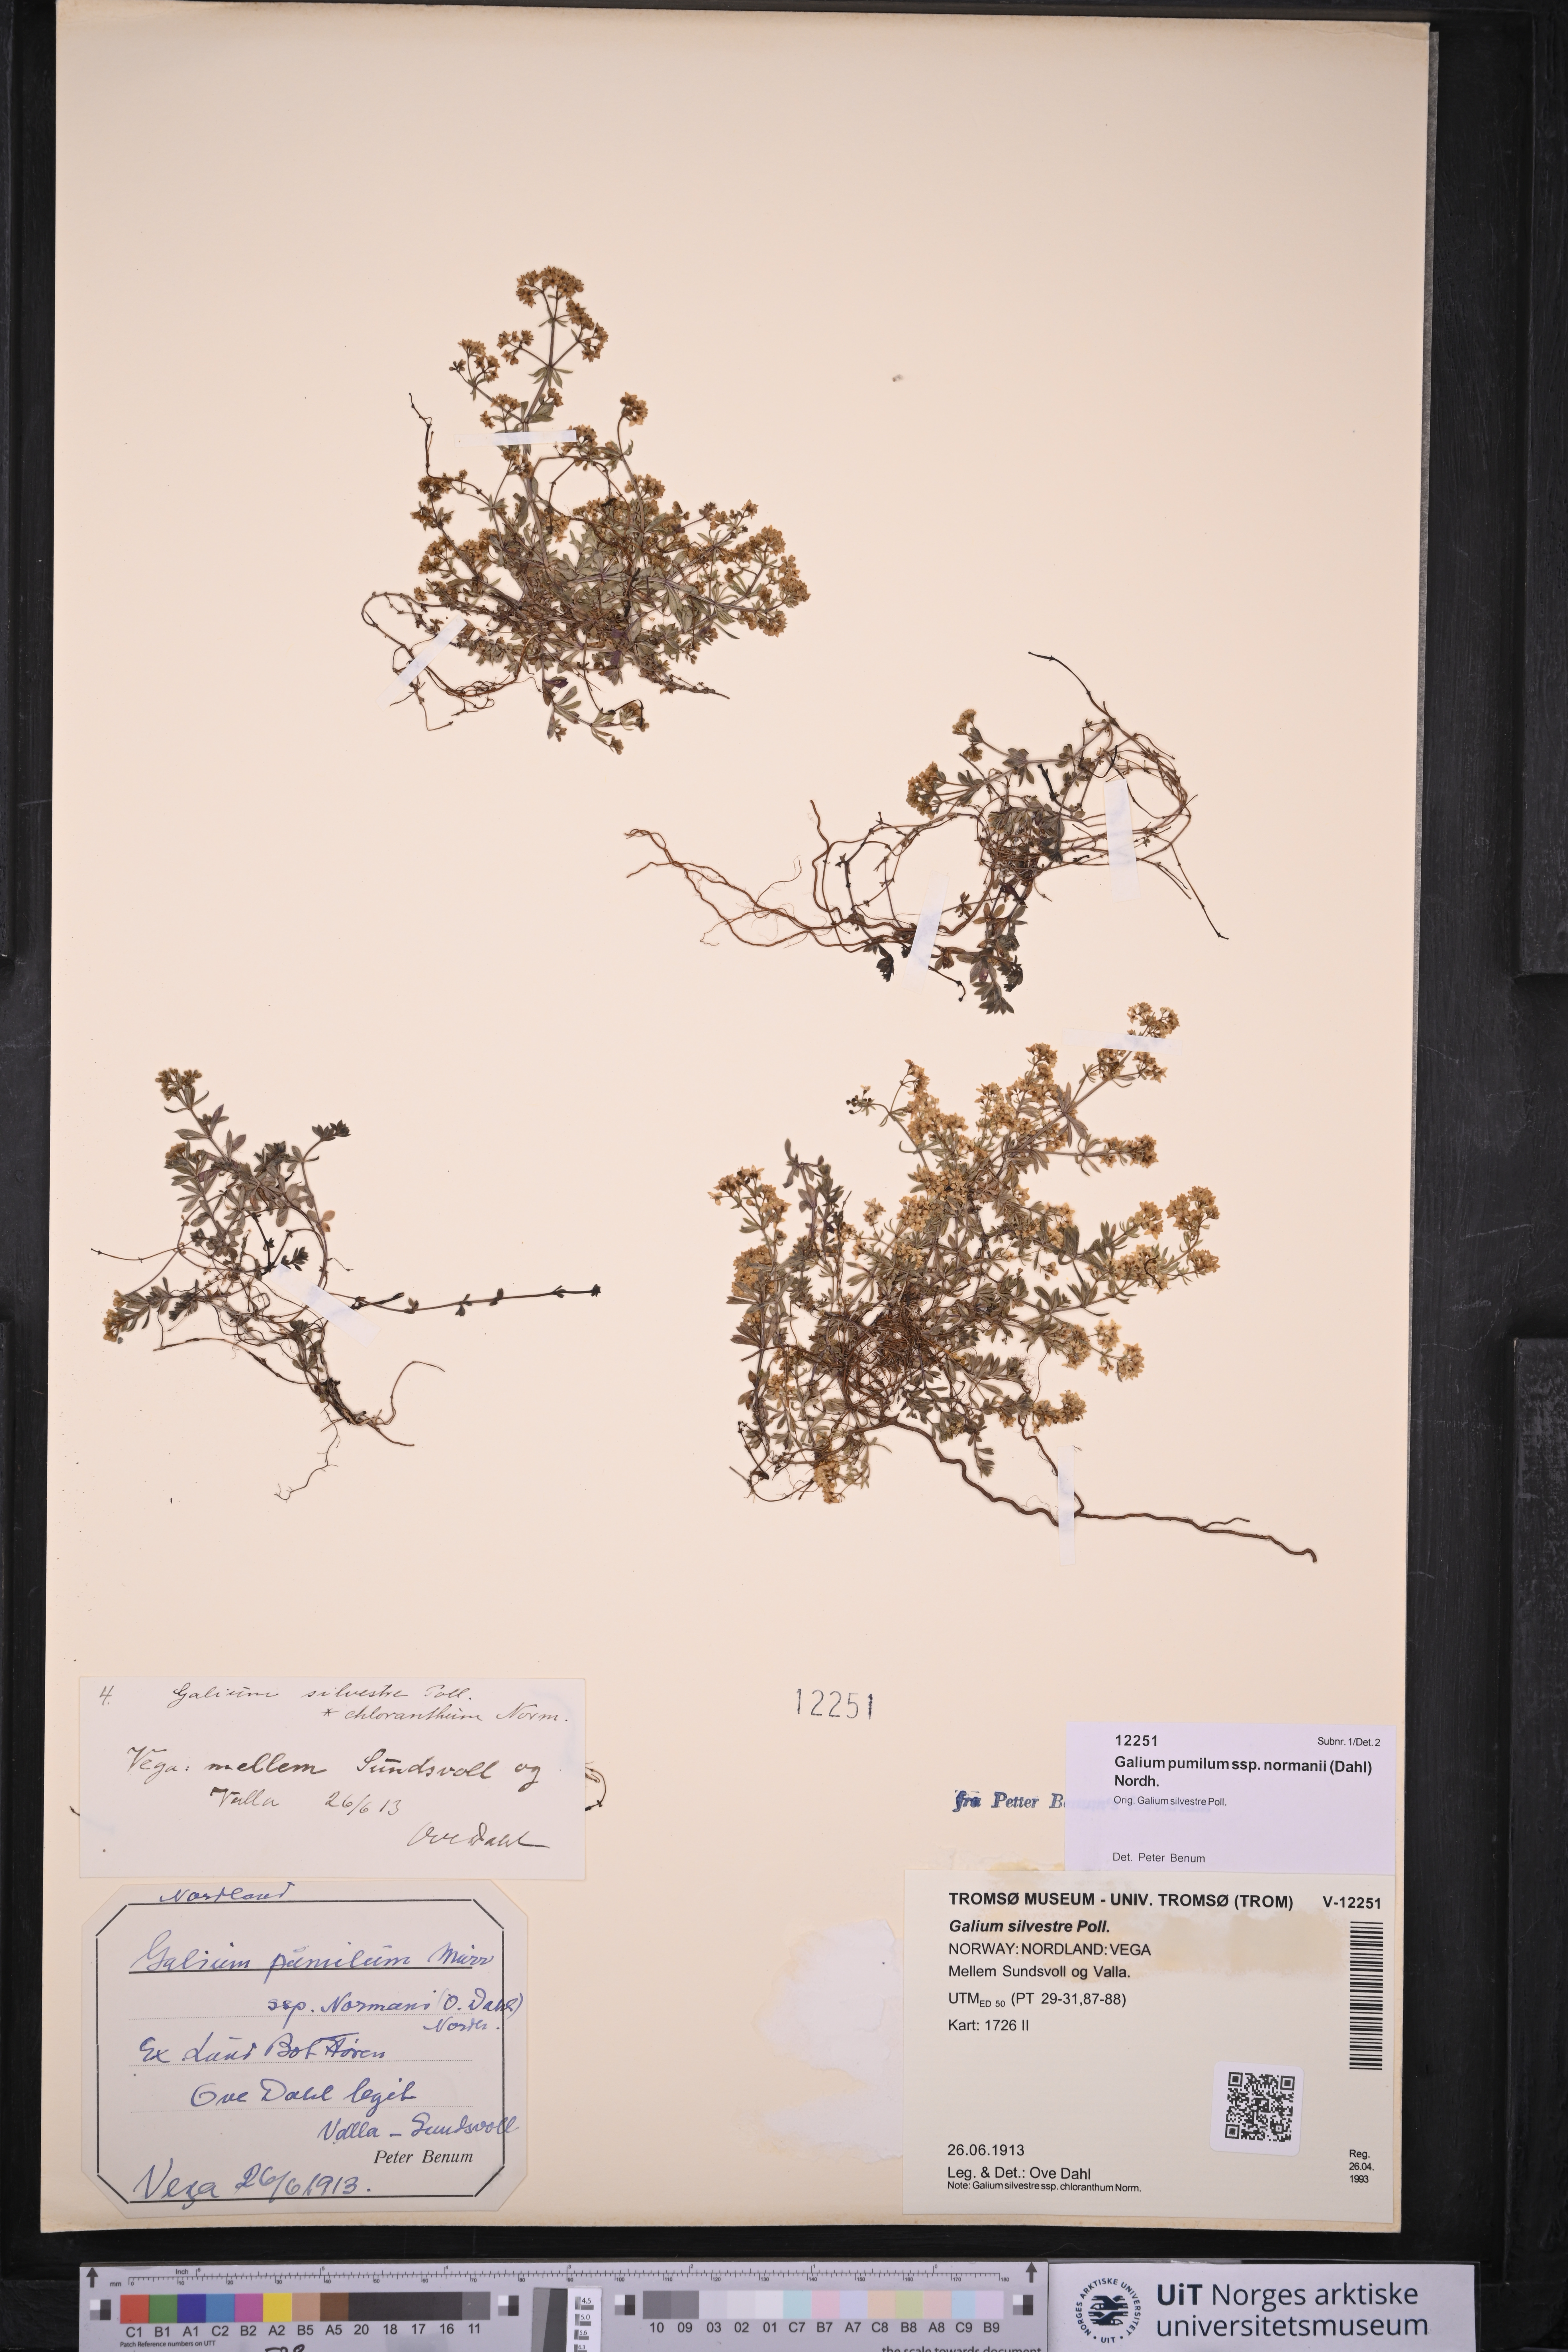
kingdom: Plantae
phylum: Tracheophyta
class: Magnoliopsida
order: Gentianales
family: Rubiaceae
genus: Galium
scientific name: Galium normanii
